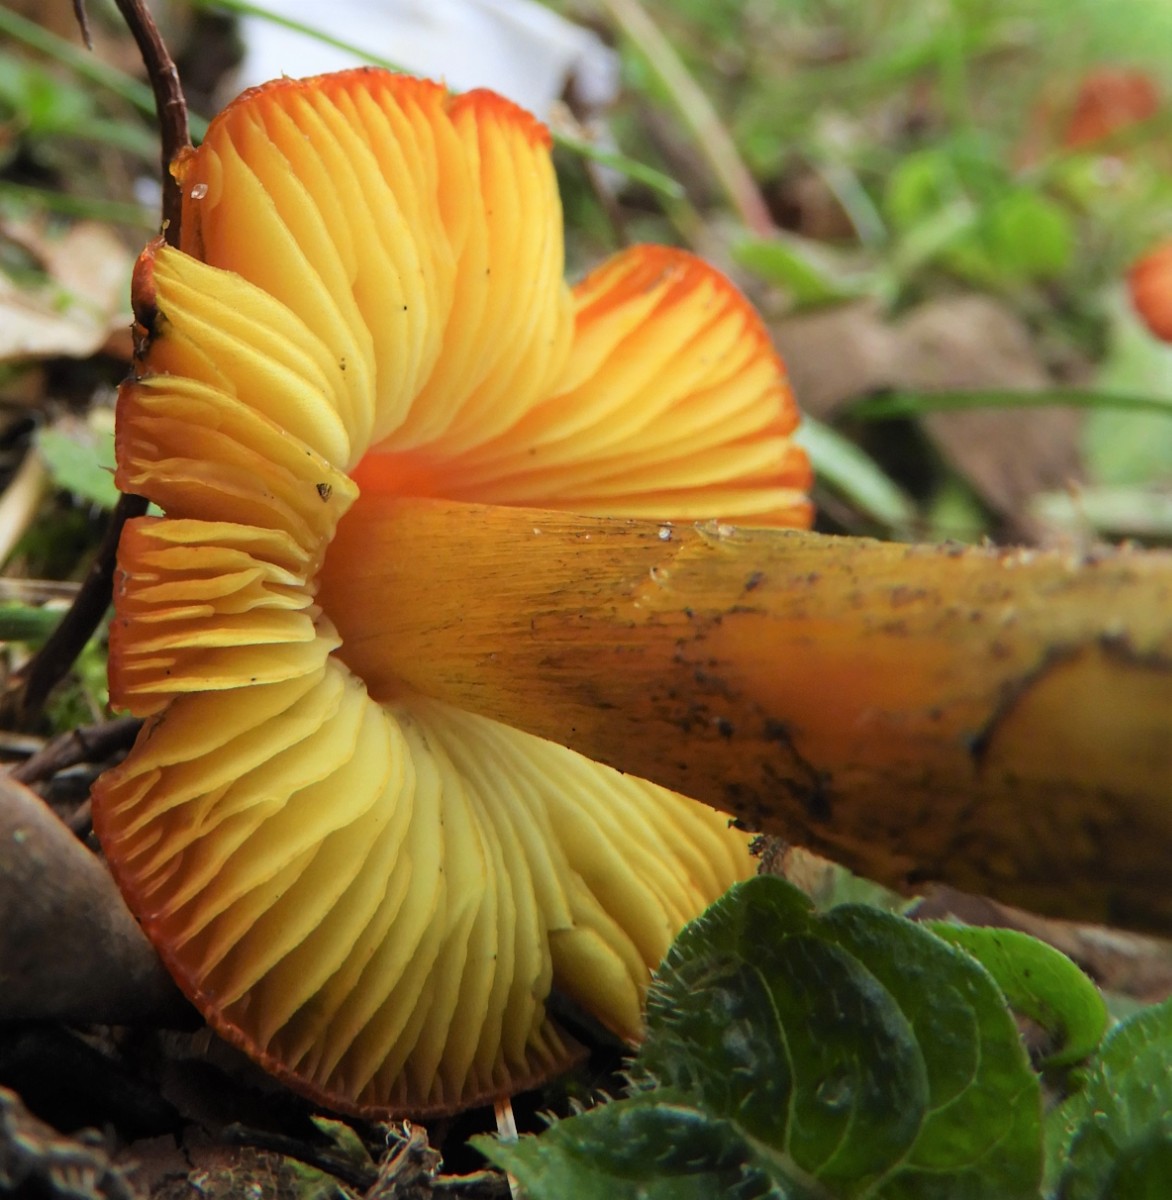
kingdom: Fungi
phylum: Basidiomycota
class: Agaricomycetes
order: Agaricales
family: Hygrophoraceae
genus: Hygrocybe
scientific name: Hygrocybe conica
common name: kegle-vokshat
